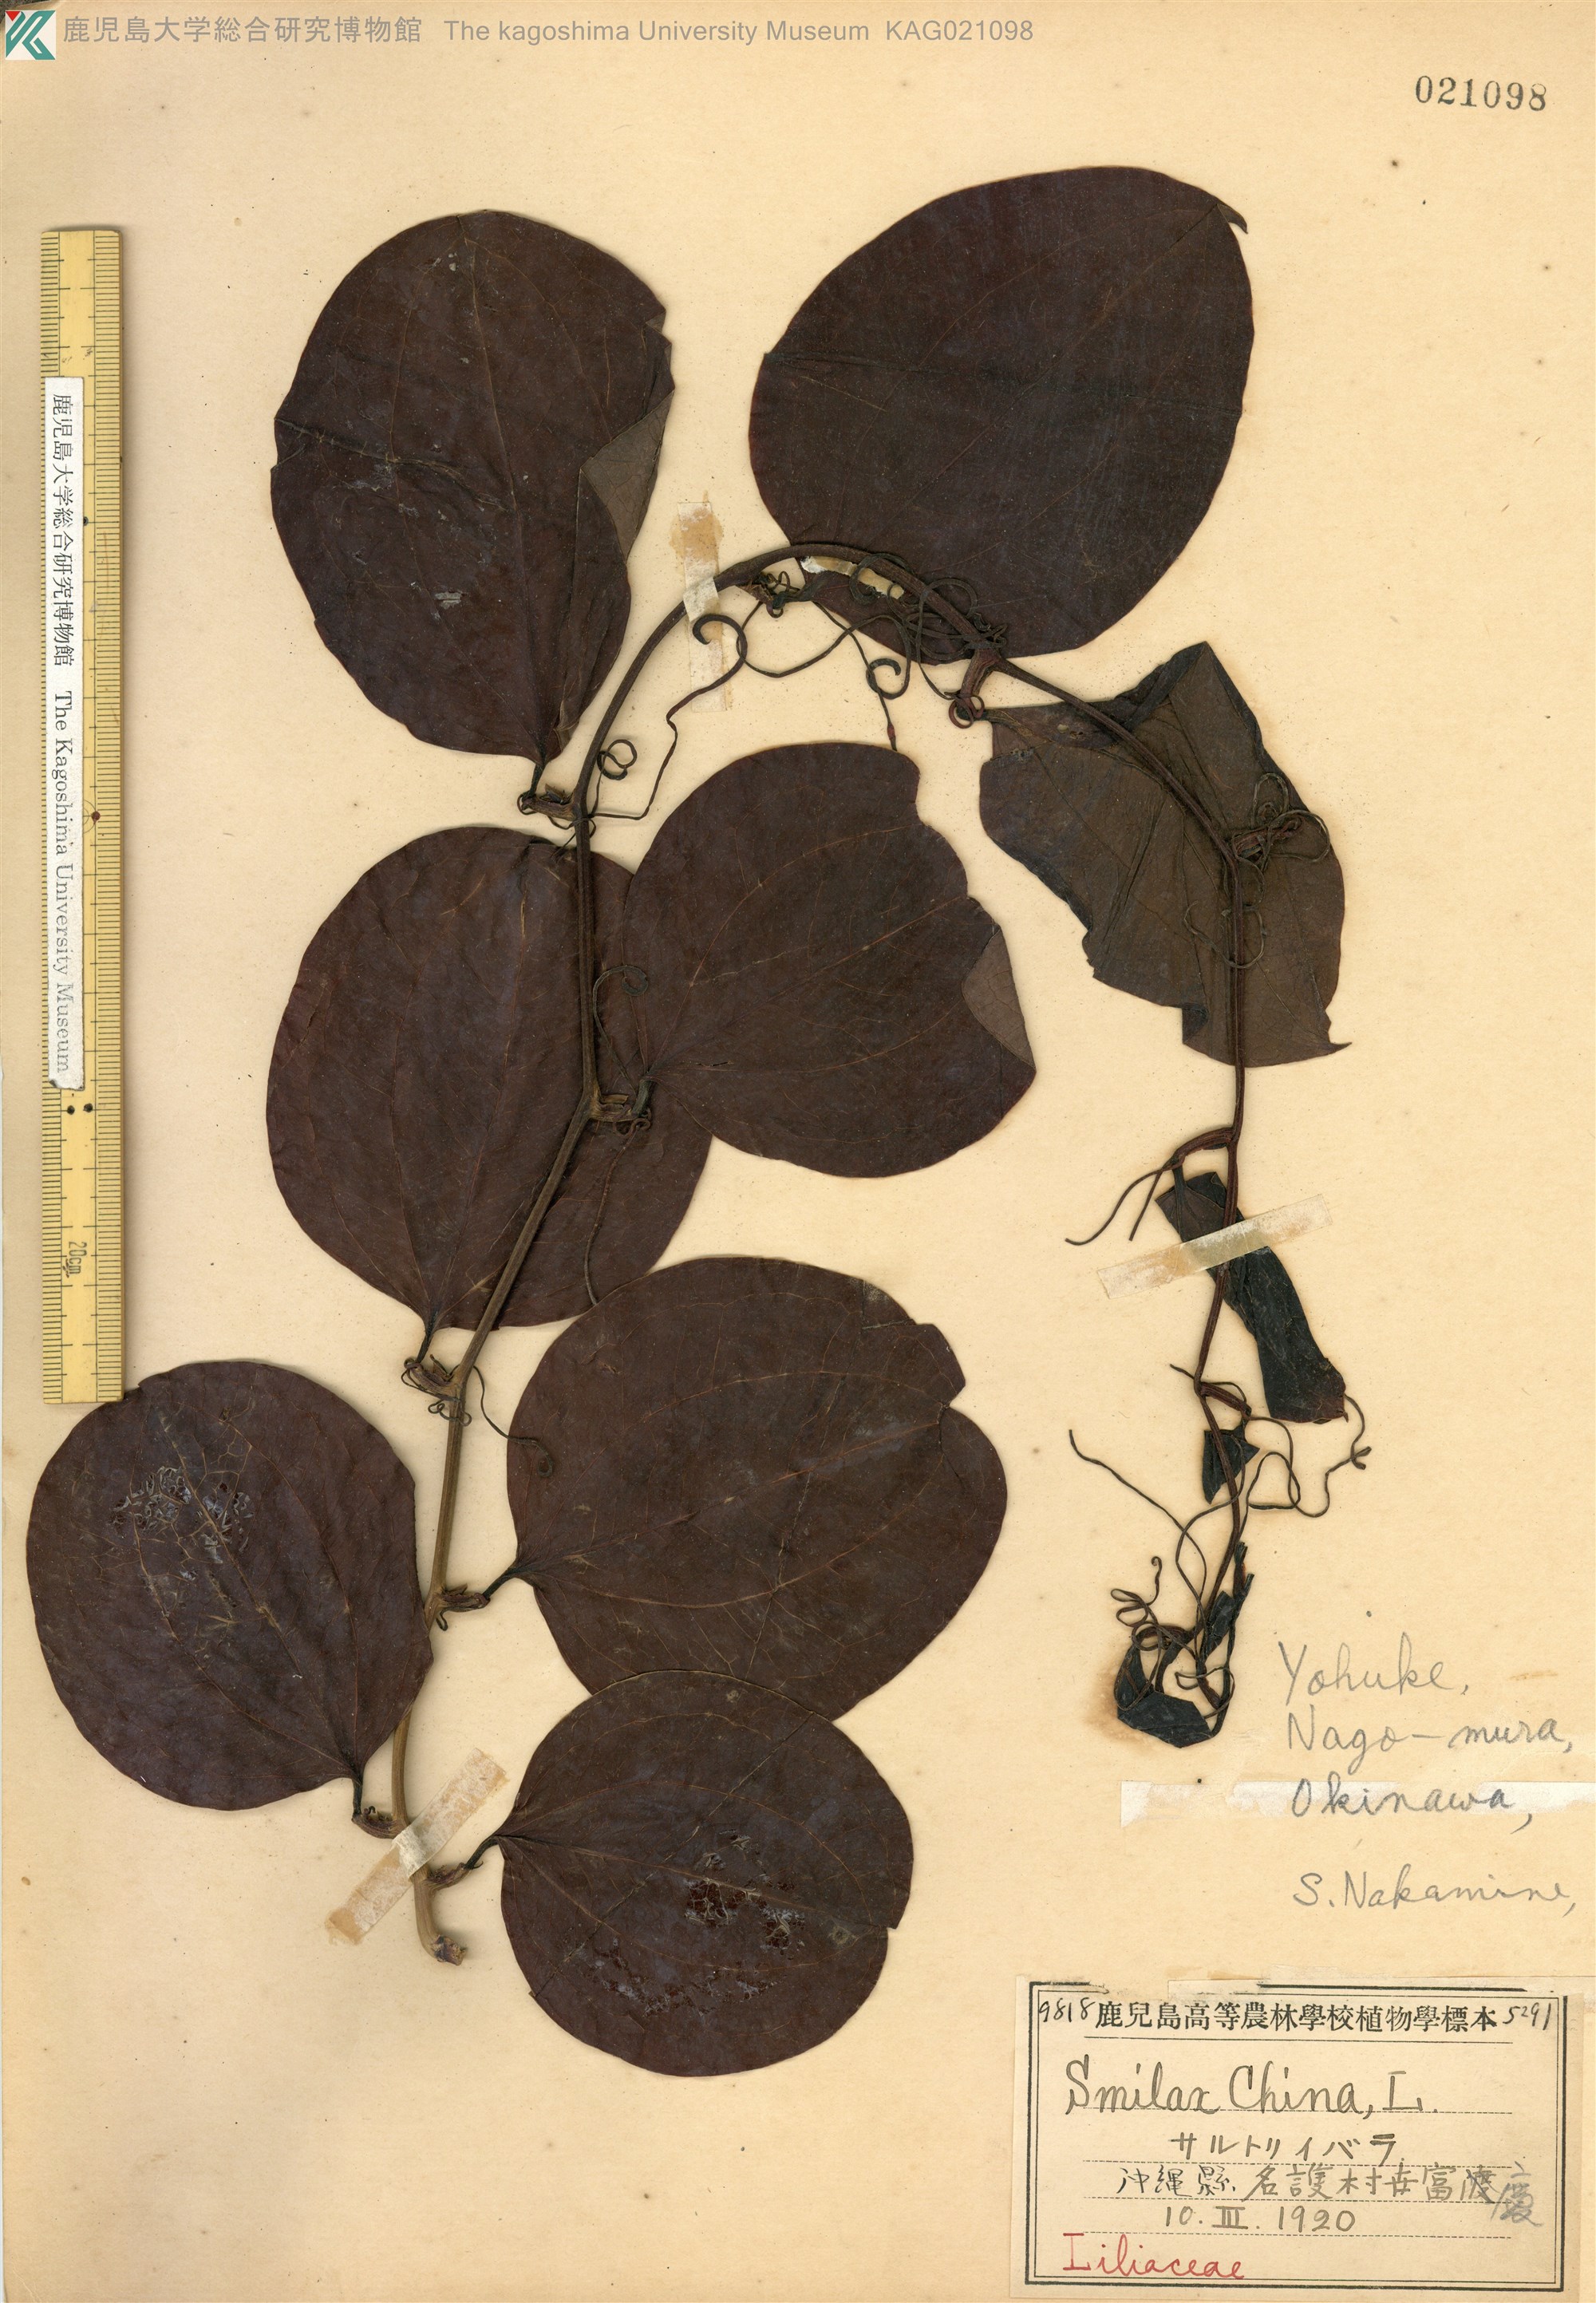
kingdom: Plantae
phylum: Tracheophyta
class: Liliopsida
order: Liliales
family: Smilacaceae
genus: Smilax
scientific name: Smilax china
